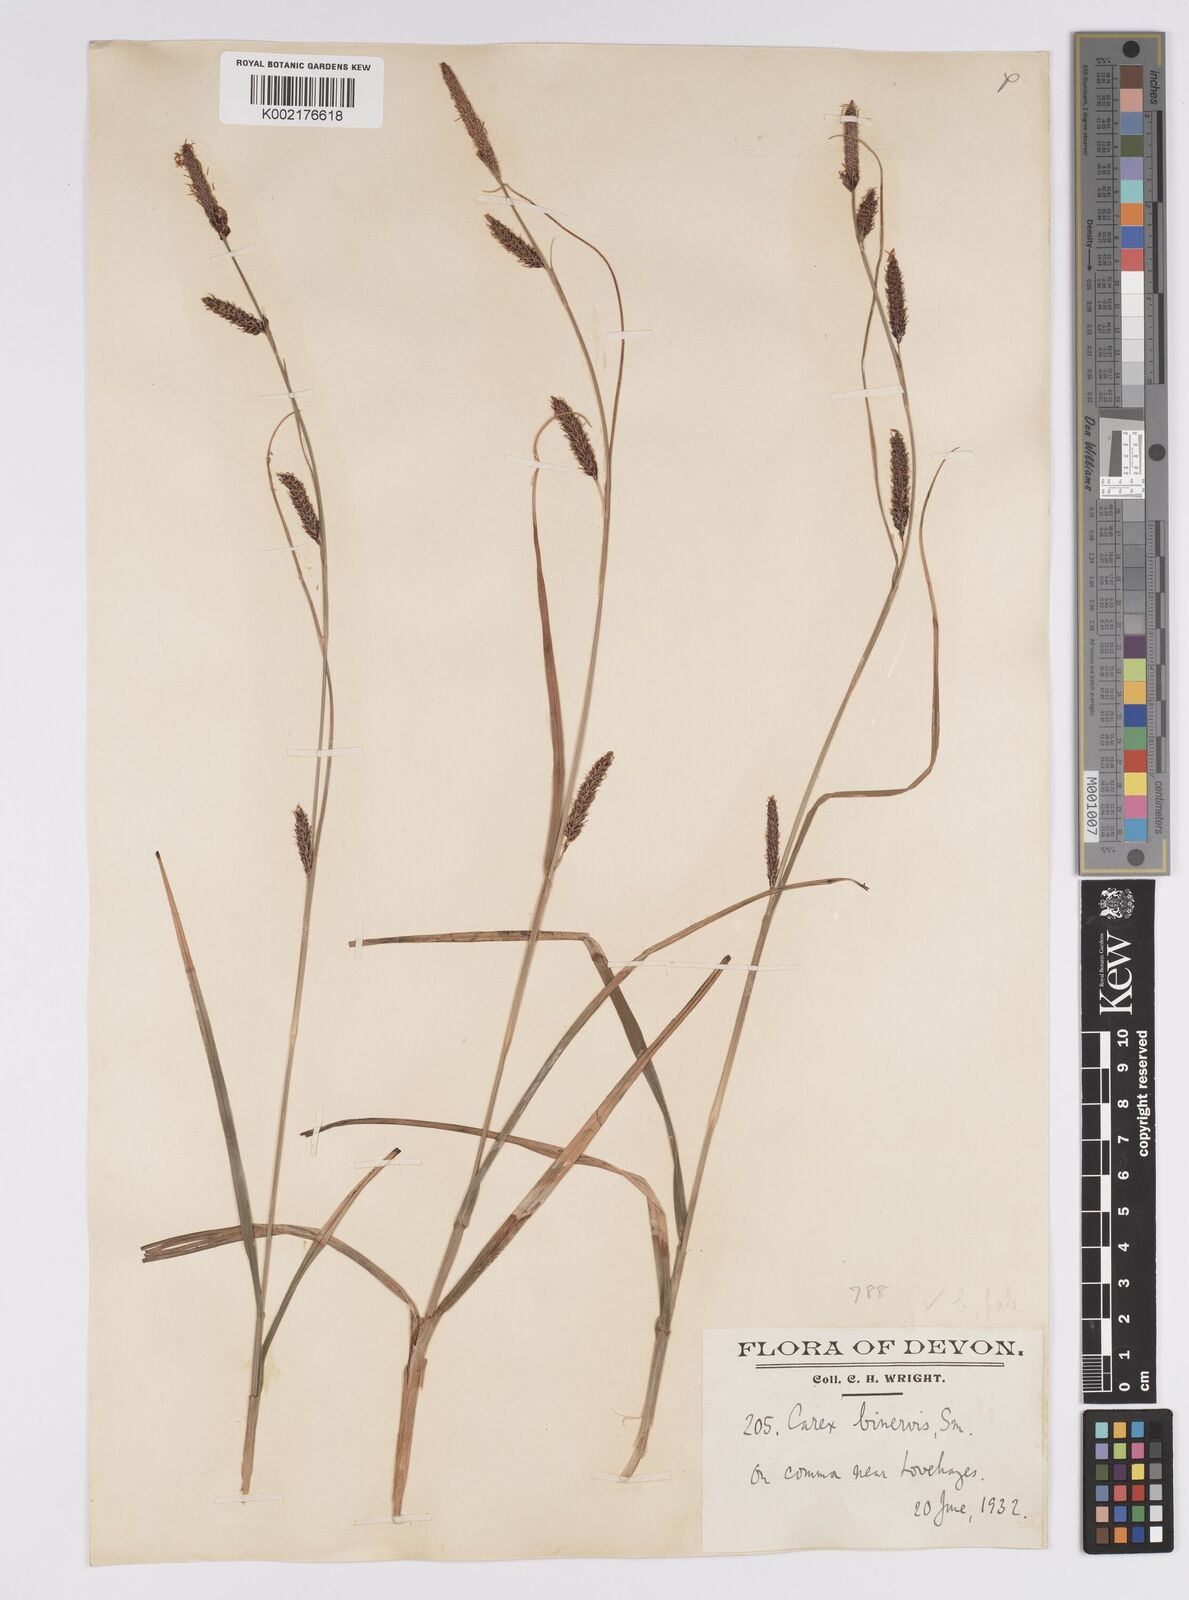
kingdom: Plantae
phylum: Tracheophyta
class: Liliopsida
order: Poales
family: Cyperaceae
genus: Carex
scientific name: Carex binervis
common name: Green-ribbed sedge
